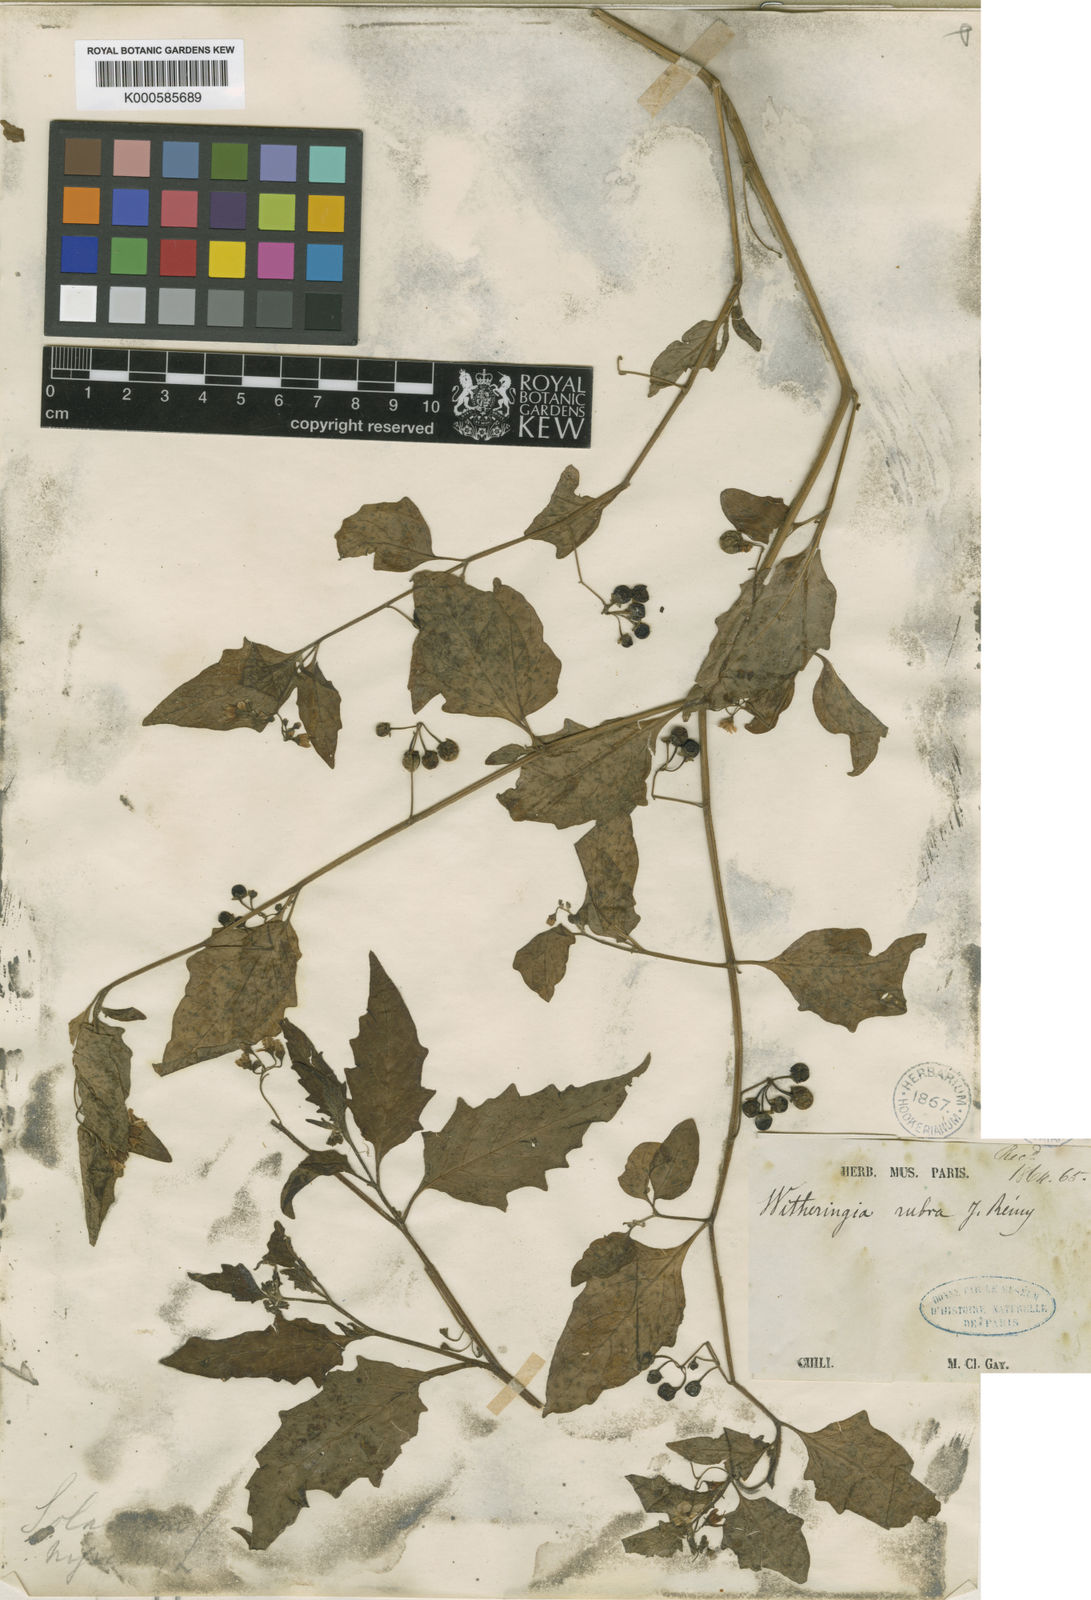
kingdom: Plantae
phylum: Tracheophyta
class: Magnoliopsida
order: Solanales
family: Solanaceae
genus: Solanum
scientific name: Solanum furcatum
